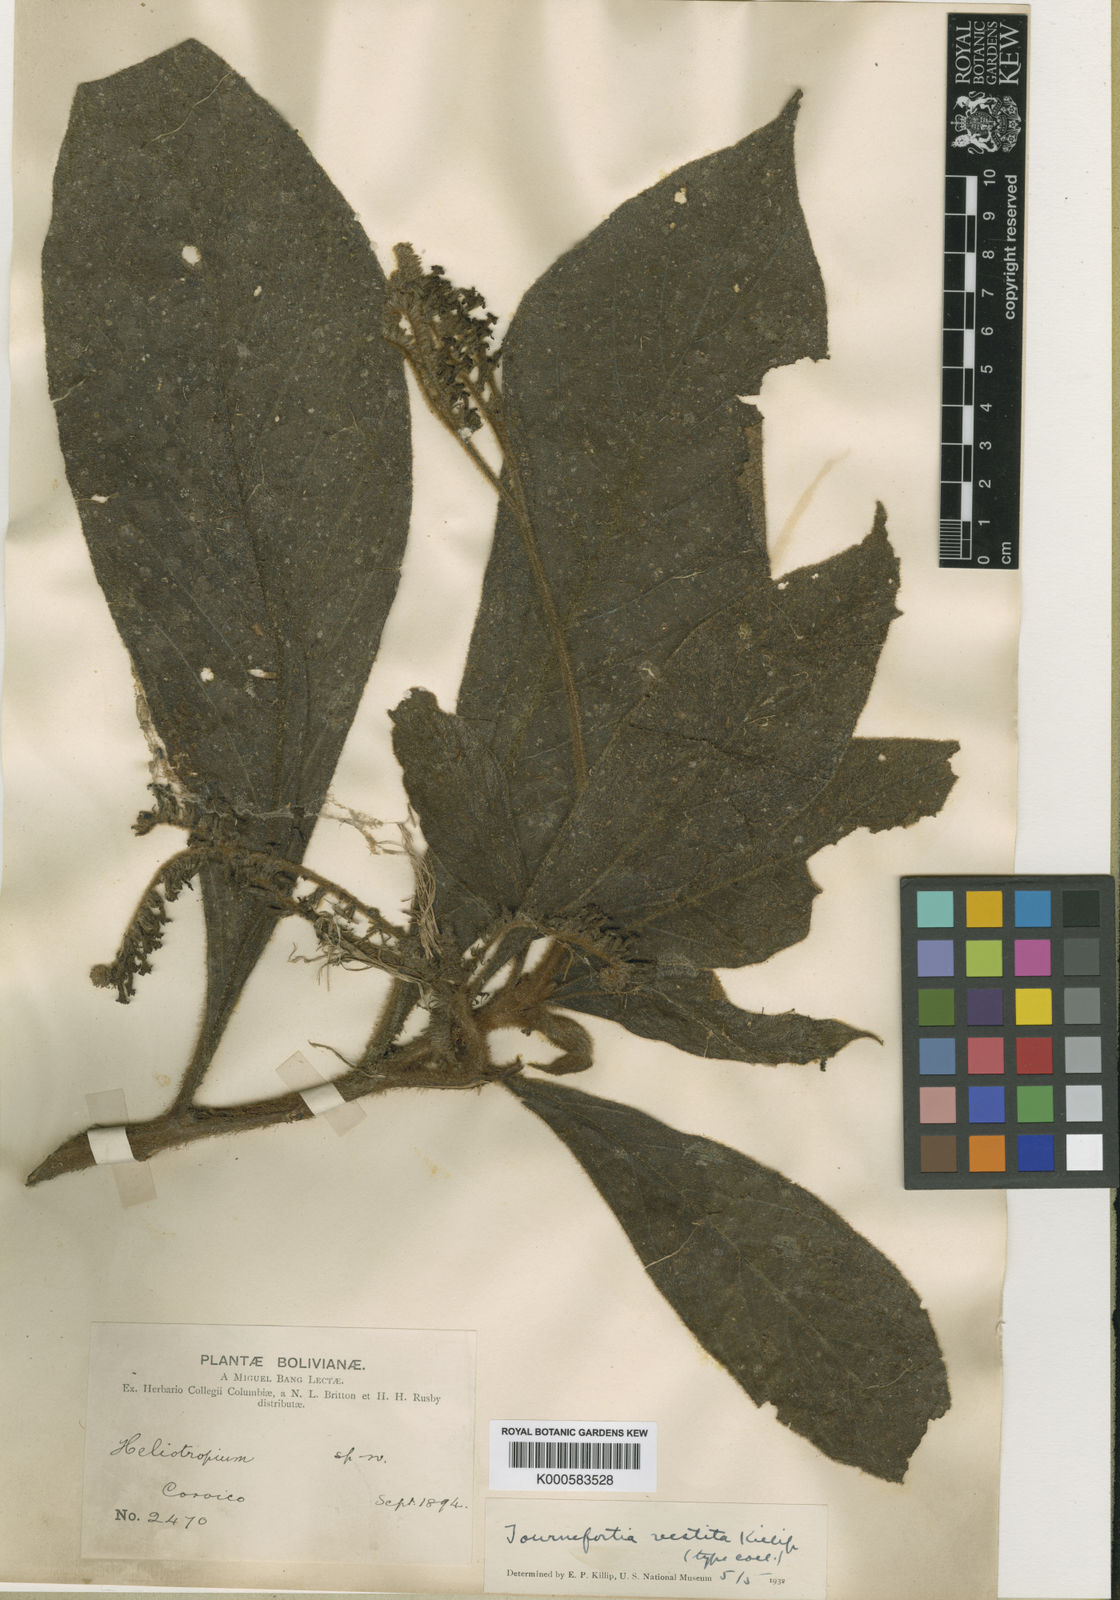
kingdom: Plantae
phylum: Tracheophyta
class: Magnoliopsida
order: Boraginales
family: Heliotropiaceae
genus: Tournefortia
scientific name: Tournefortia vestita
